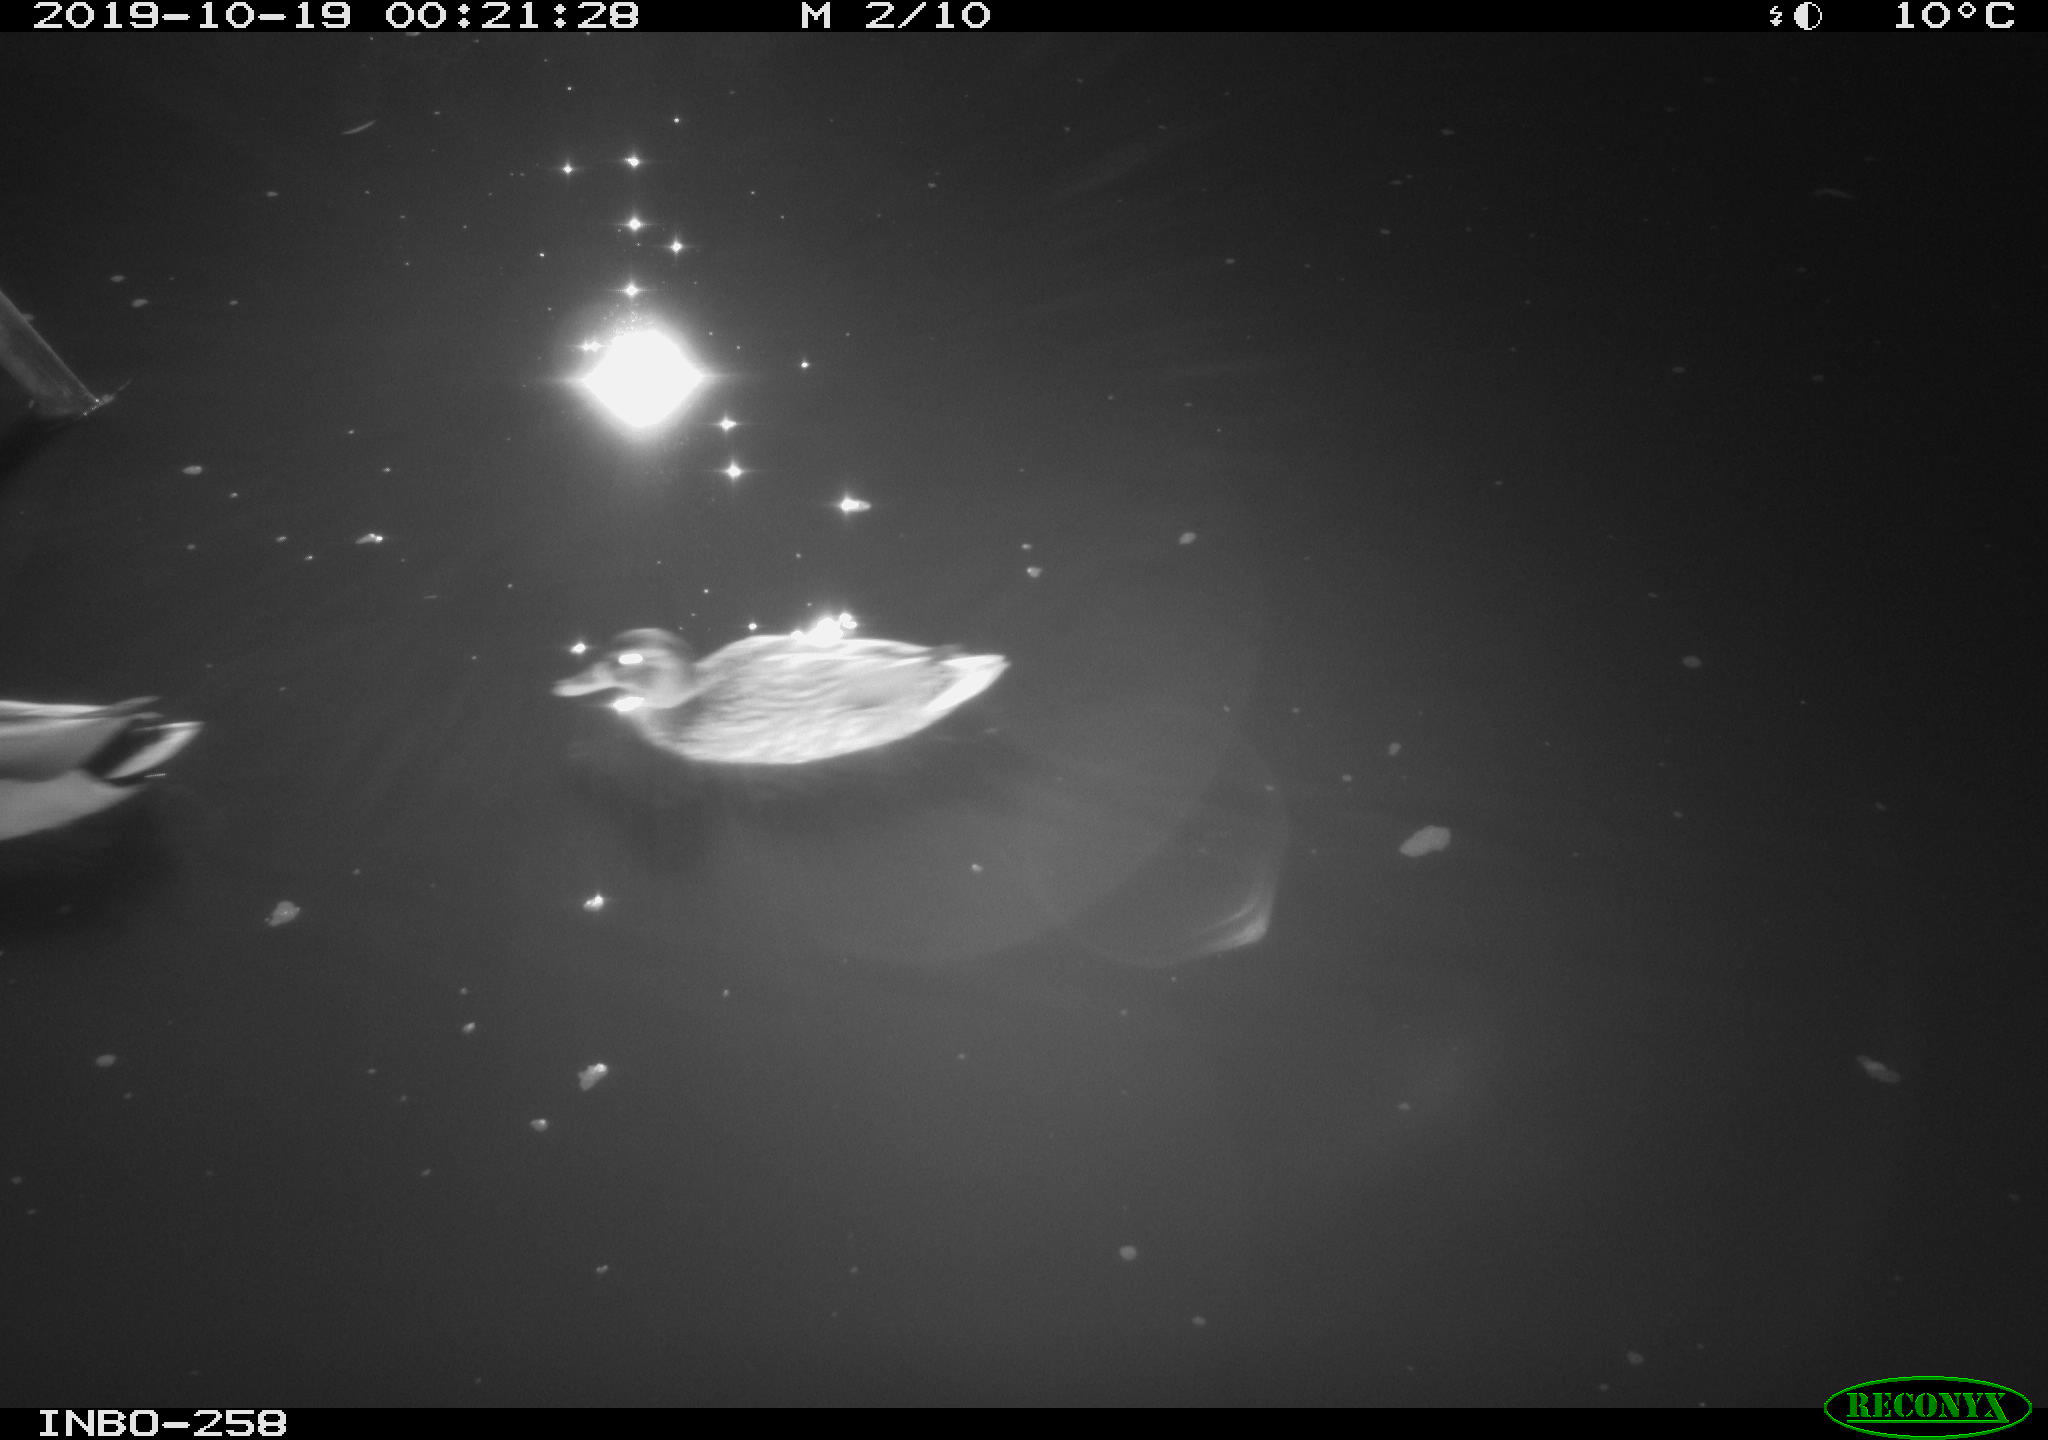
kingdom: Animalia
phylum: Chordata
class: Aves
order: Anseriformes
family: Anatidae
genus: Anas
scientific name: Anas platyrhynchos
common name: Mallard
